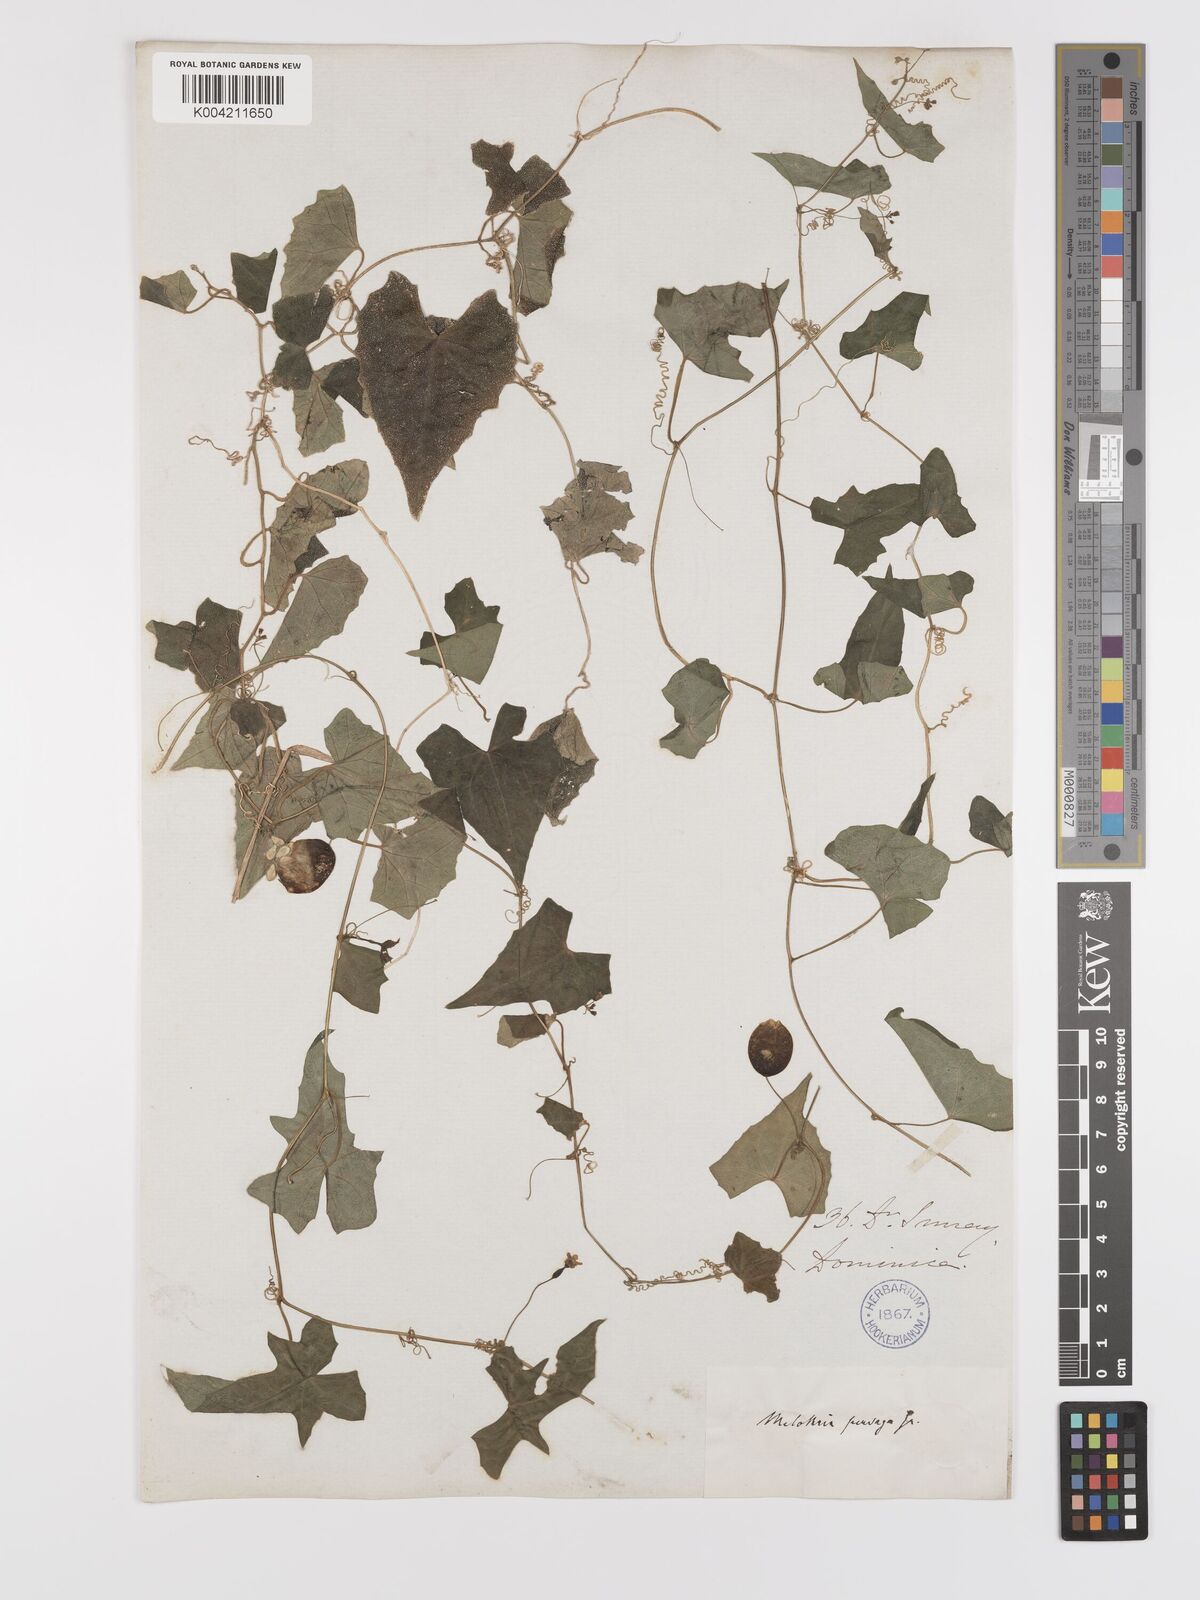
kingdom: Plantae
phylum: Tracheophyta
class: Magnoliopsida
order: Cucurbitales
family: Cucurbitaceae
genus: Melothria
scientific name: Melothria
